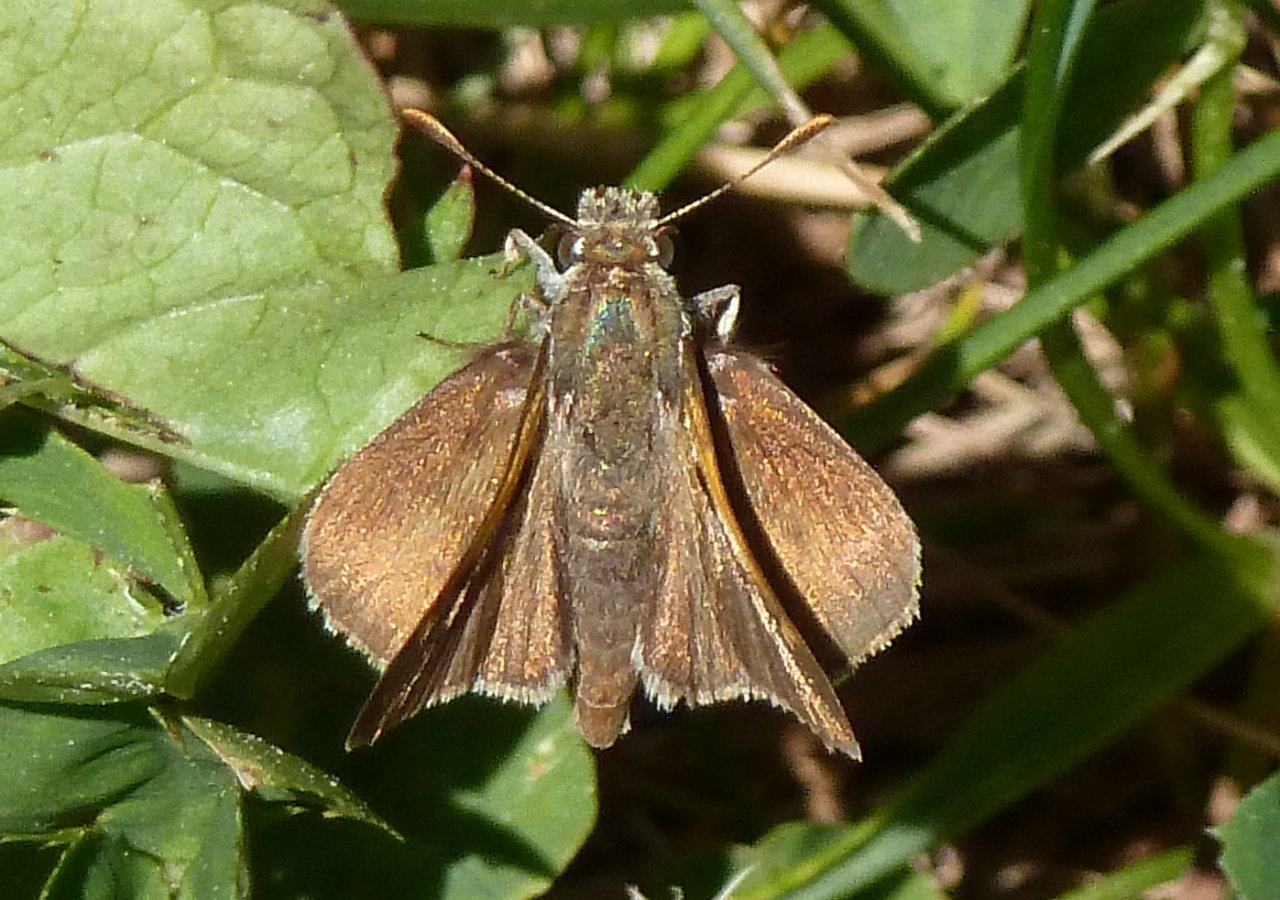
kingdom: Animalia
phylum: Arthropoda
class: Insecta
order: Lepidoptera
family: Hesperiidae
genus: Euphyes
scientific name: Euphyes vestris
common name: Dun Skipper
